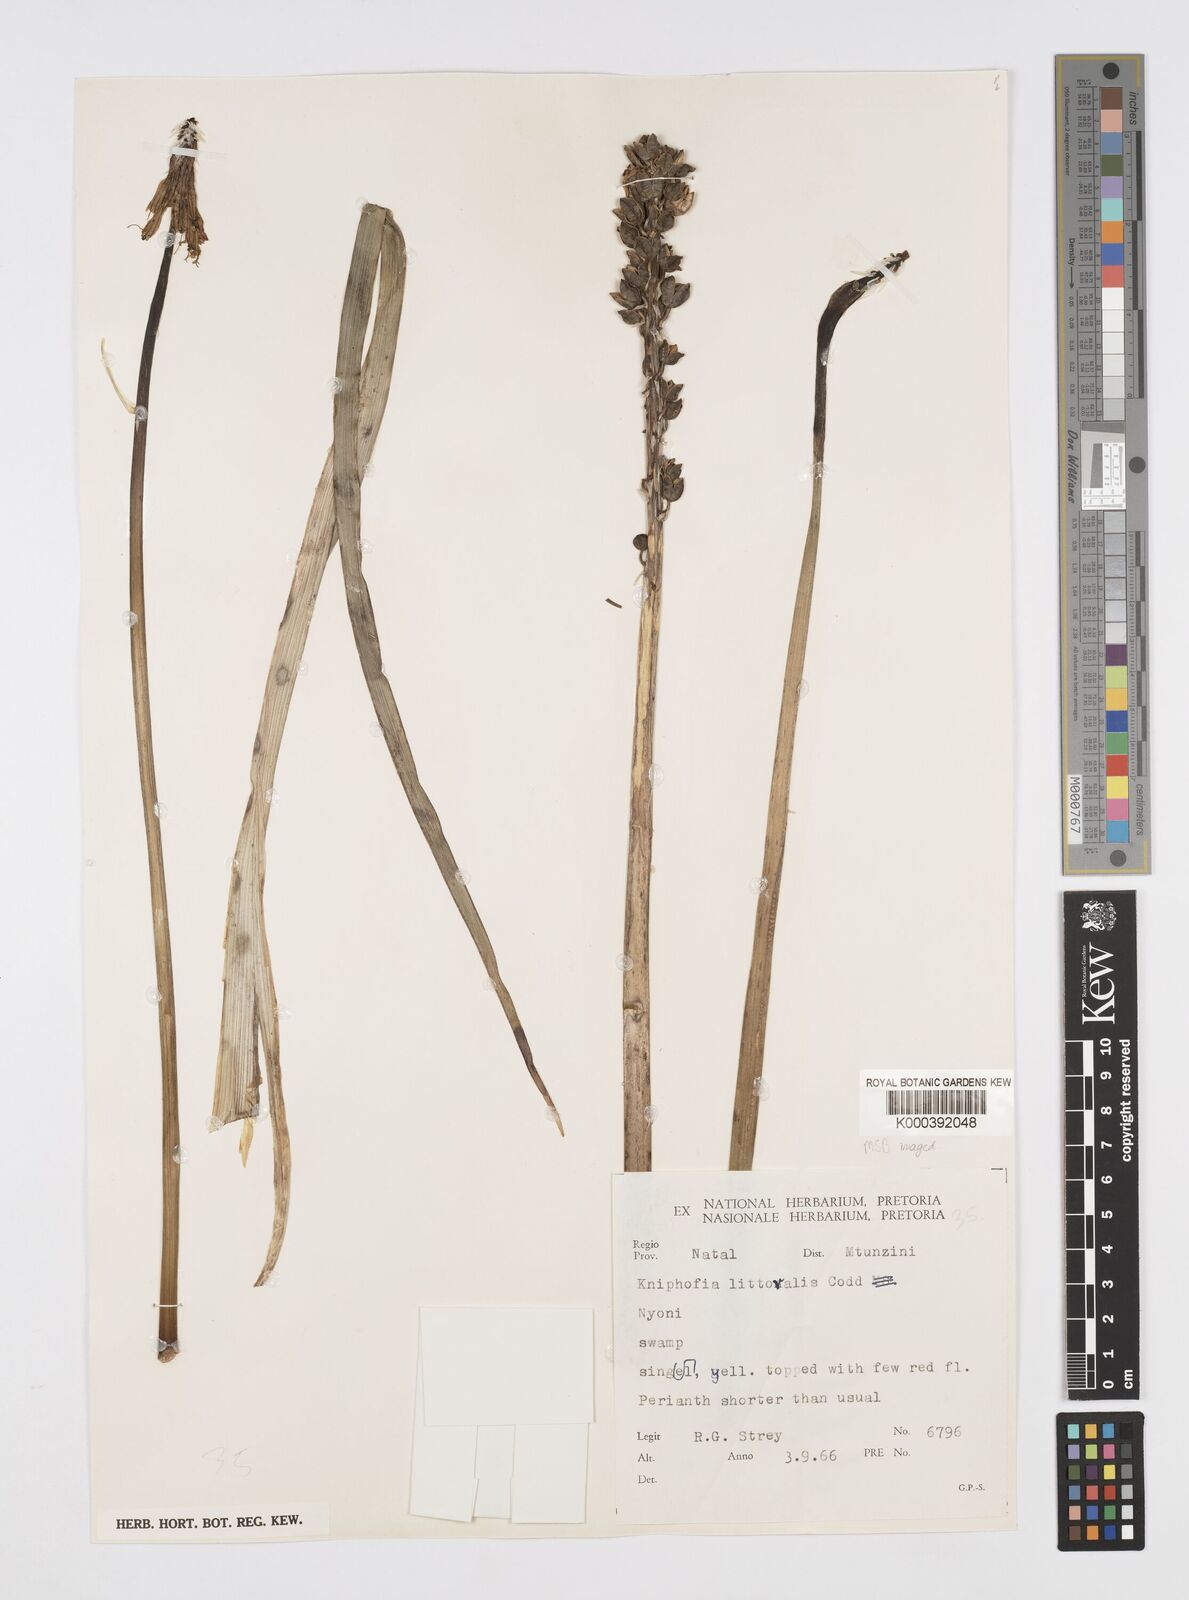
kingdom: Plantae
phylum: Tracheophyta
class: Liliopsida
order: Asparagales
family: Asphodelaceae
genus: Kniphofia
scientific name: Kniphofia littoralis
